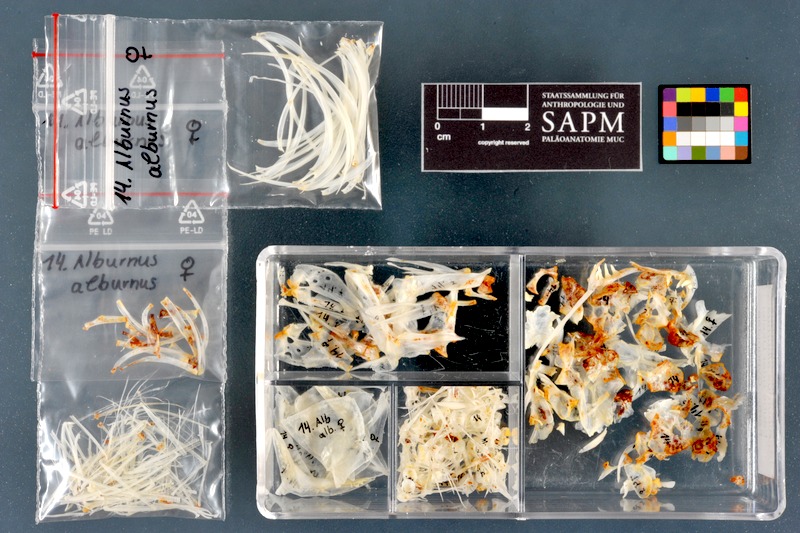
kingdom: Animalia
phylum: Chordata
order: Cypriniformes
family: Cyprinidae
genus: Alburnus
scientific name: Alburnus alburnus
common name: Bleak
